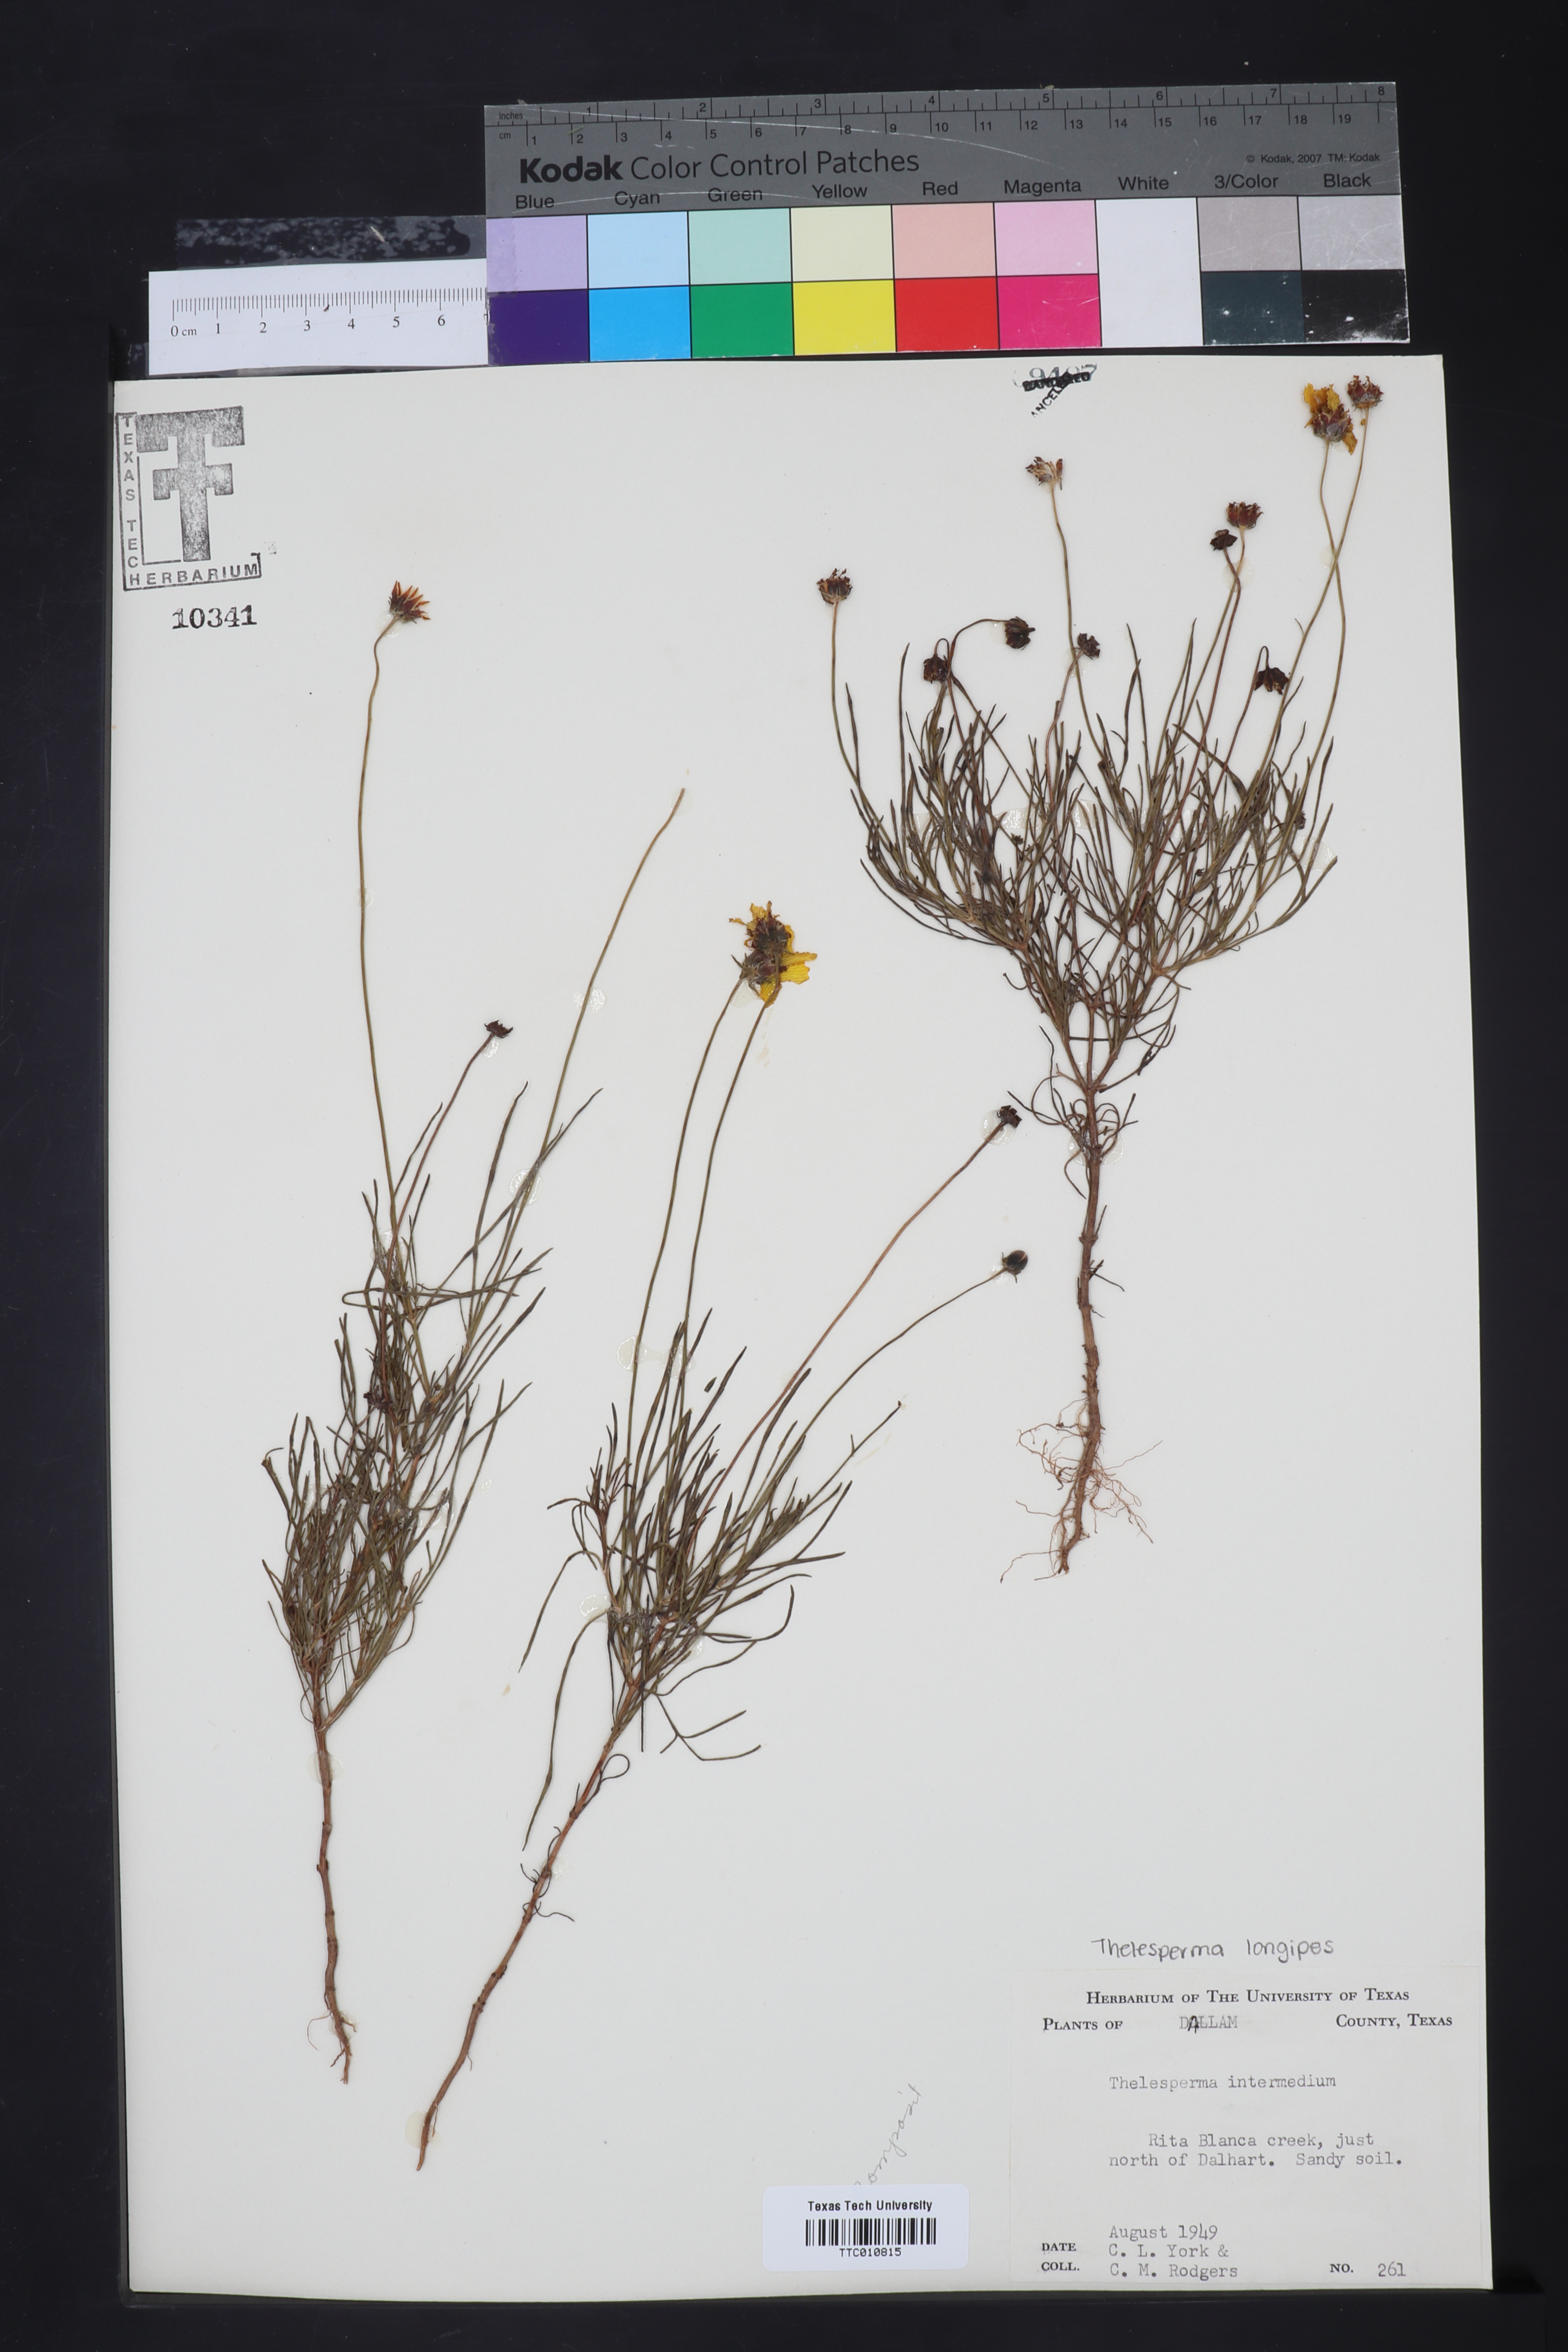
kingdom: Plantae
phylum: Tracheophyta
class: Magnoliopsida
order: Asterales
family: Asteraceae
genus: Thelesperma
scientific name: Thelesperma filifolium
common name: Stiff greenthread
